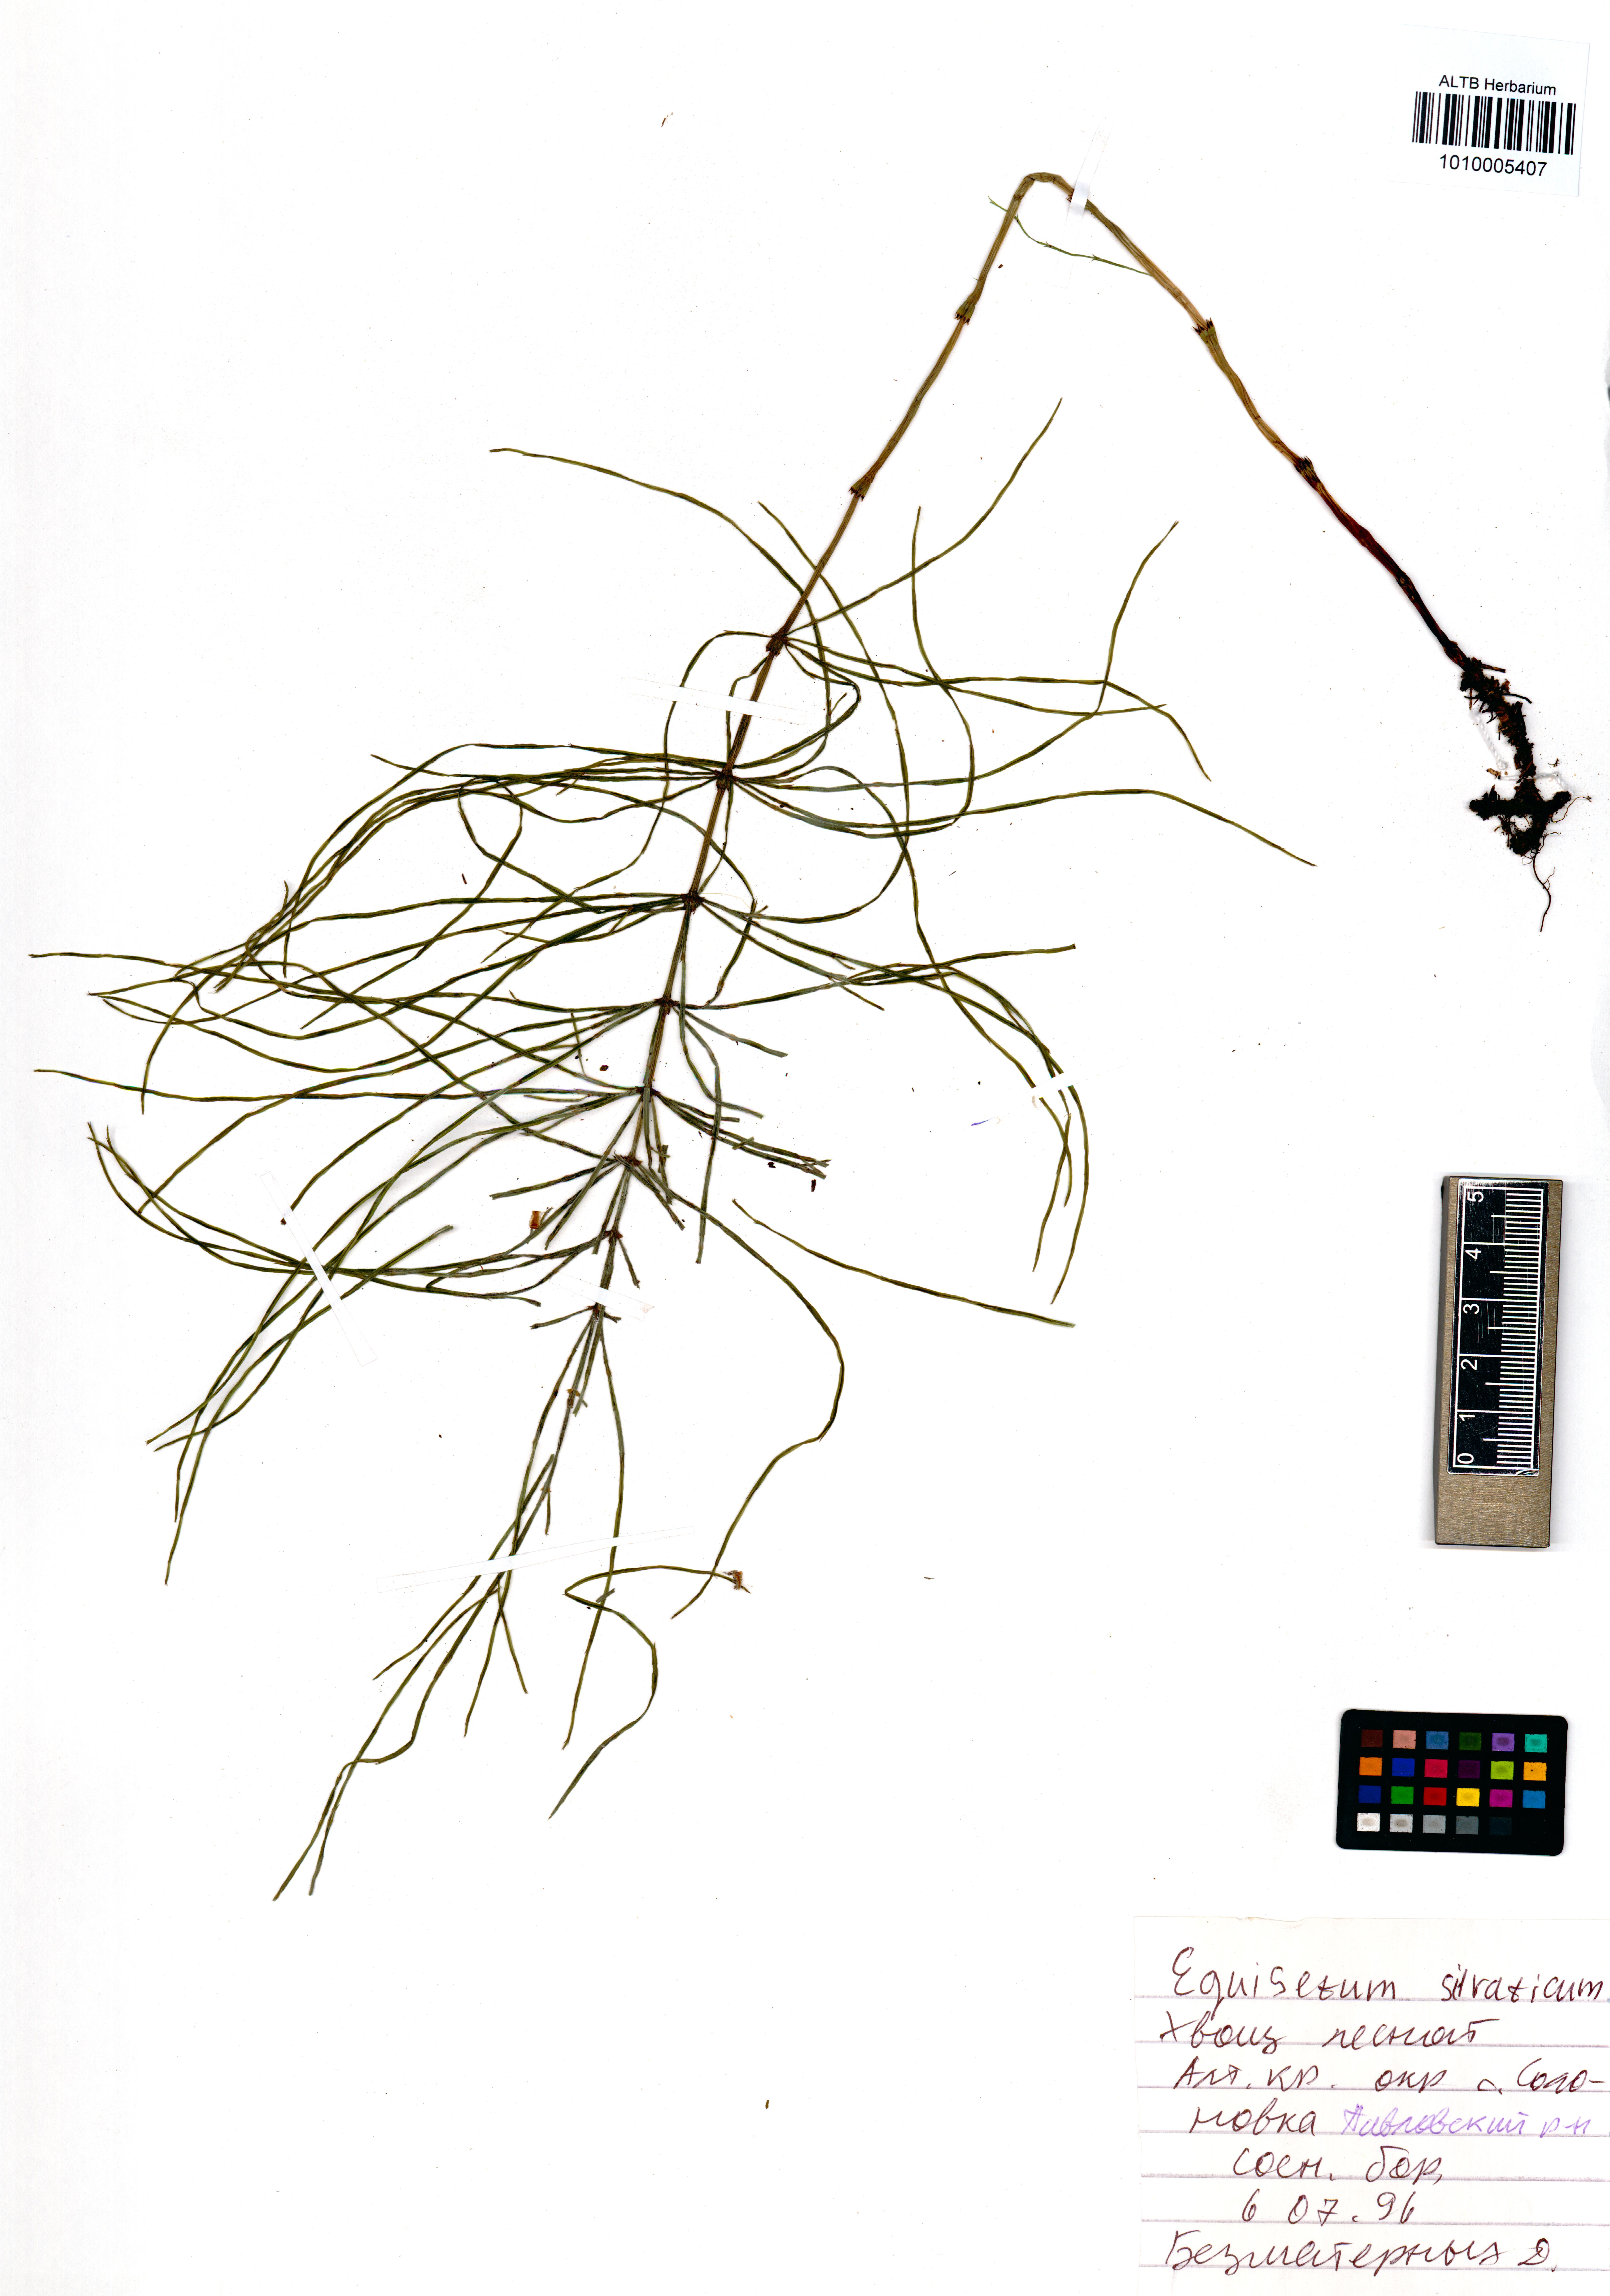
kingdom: Plantae
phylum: Tracheophyta
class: Polypodiopsida
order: Equisetales
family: Equisetaceae
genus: Equisetum
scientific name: Equisetum sylvaticum
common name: Wood horsetail
